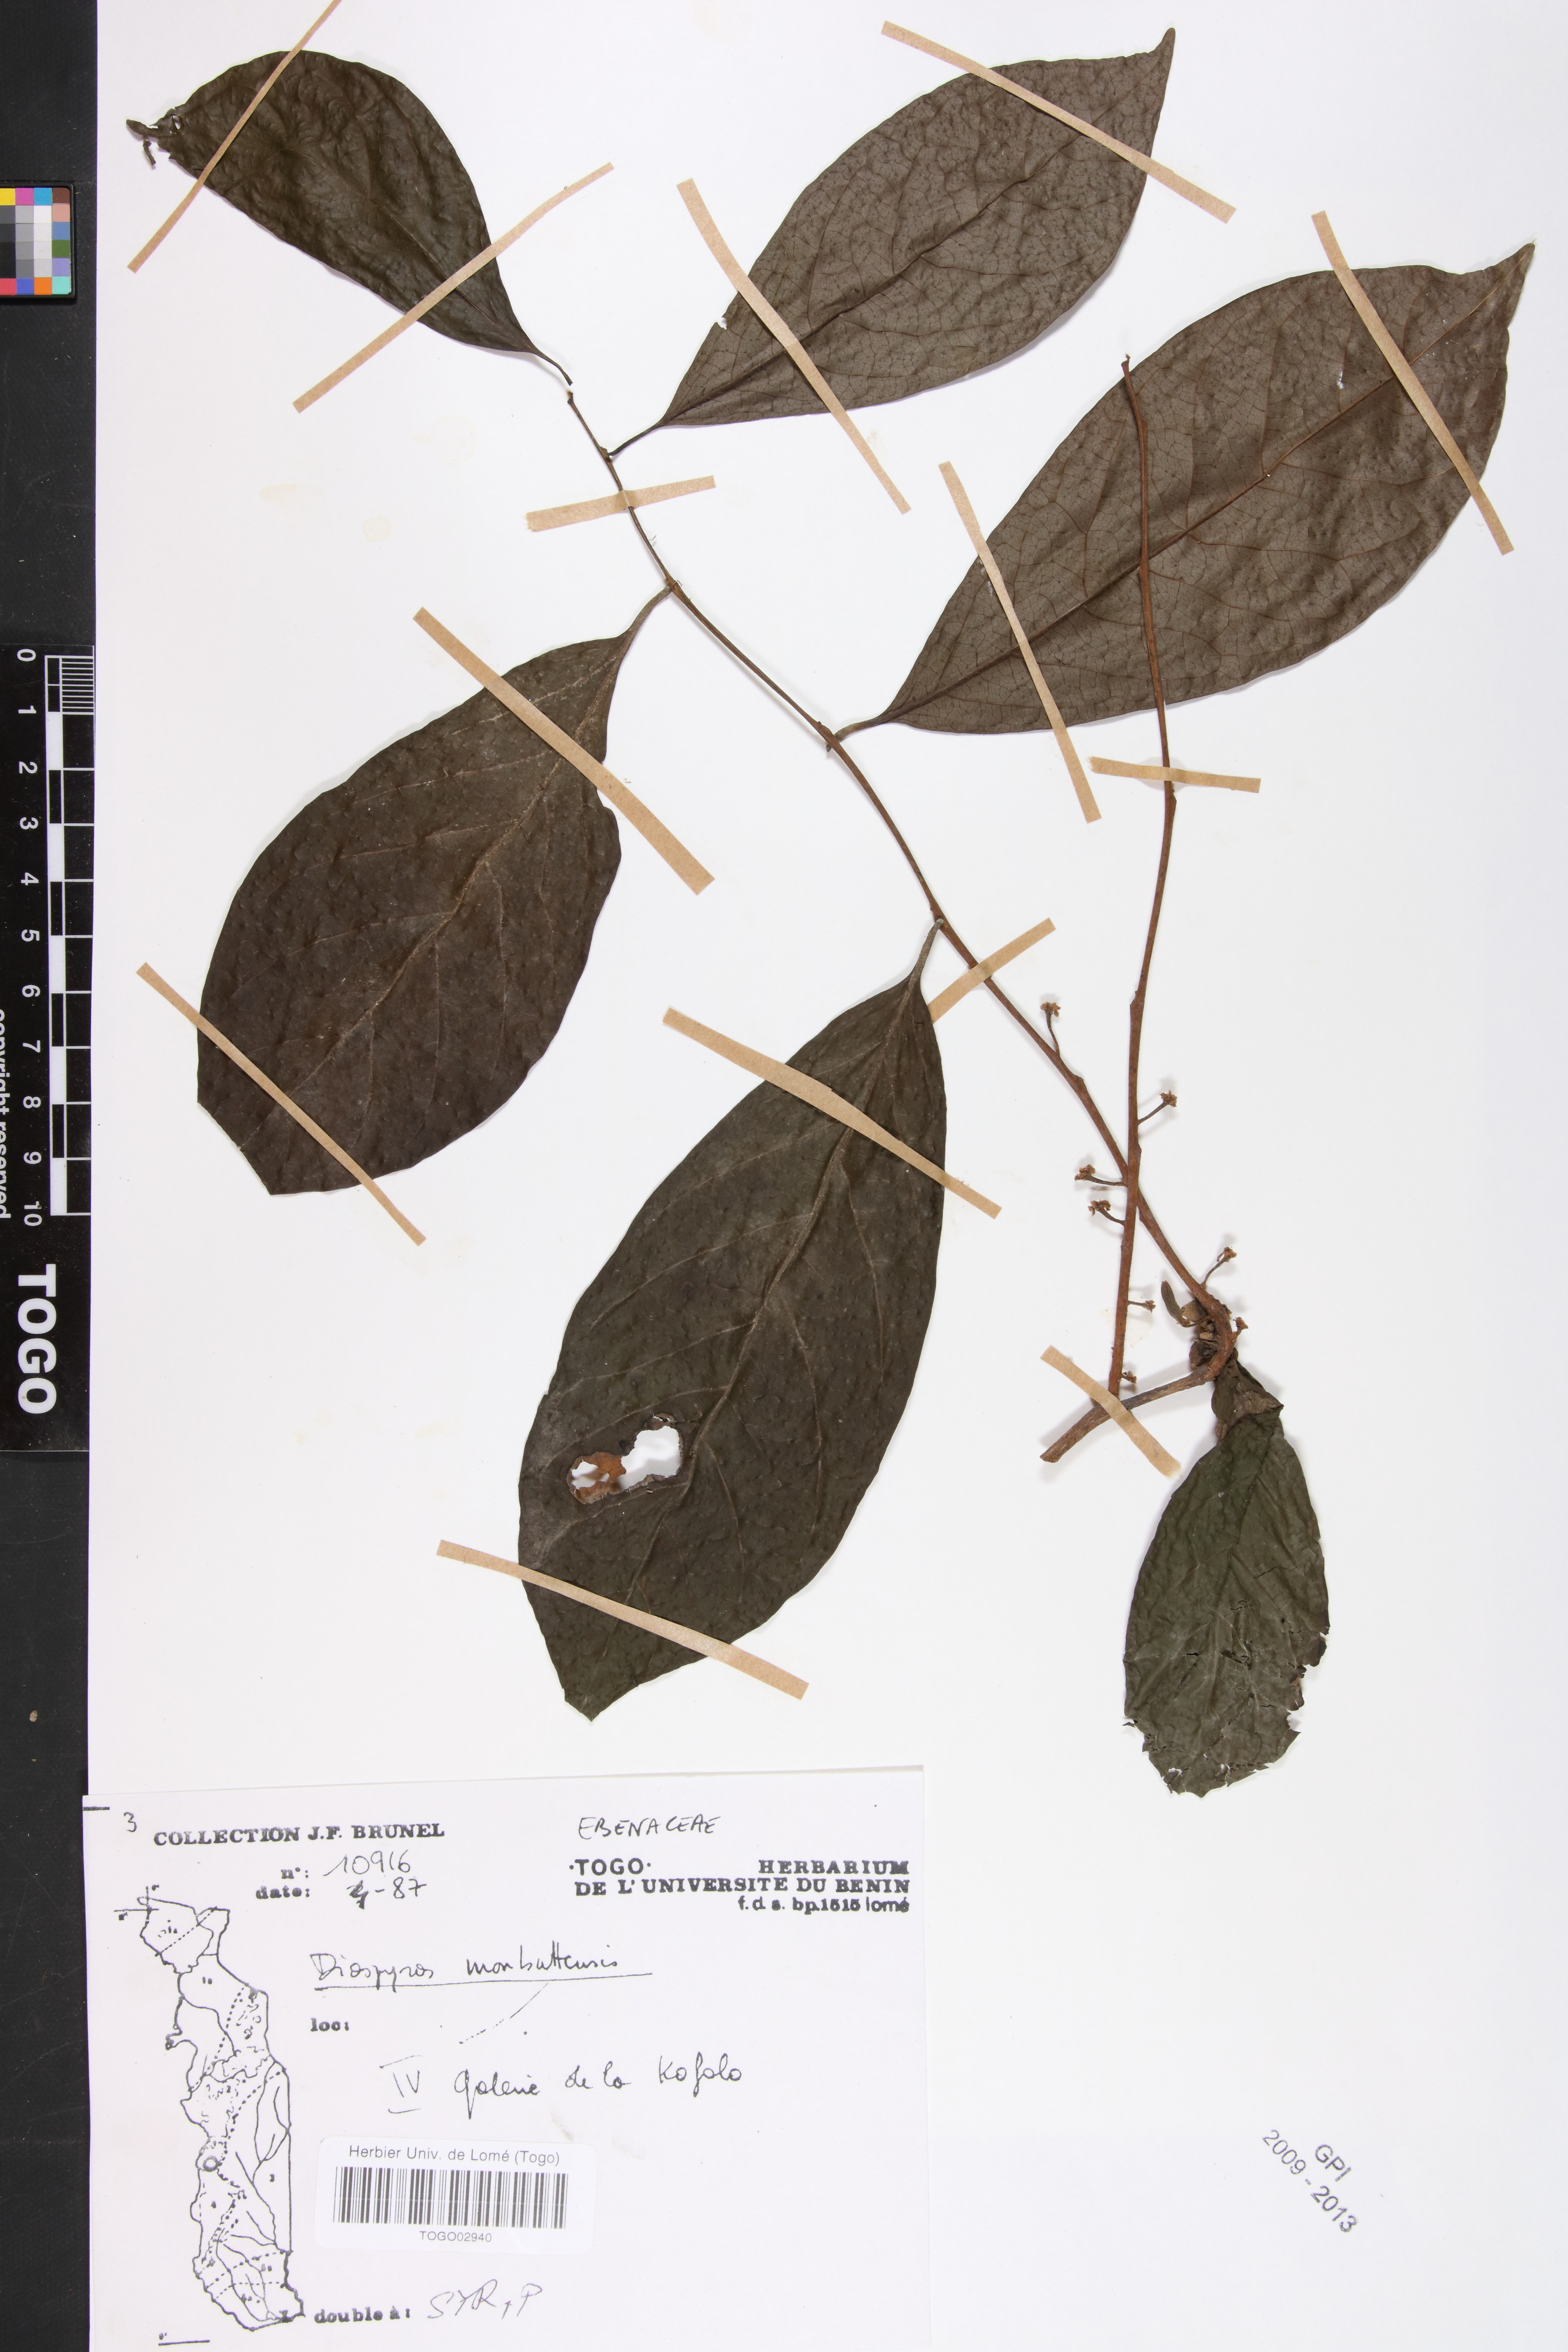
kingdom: Plantae
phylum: Tracheophyta
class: Magnoliopsida
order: Ericales
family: Ebenaceae
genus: Diospyros
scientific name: Diospyros monbuttensis
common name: Walking-stick ebony
